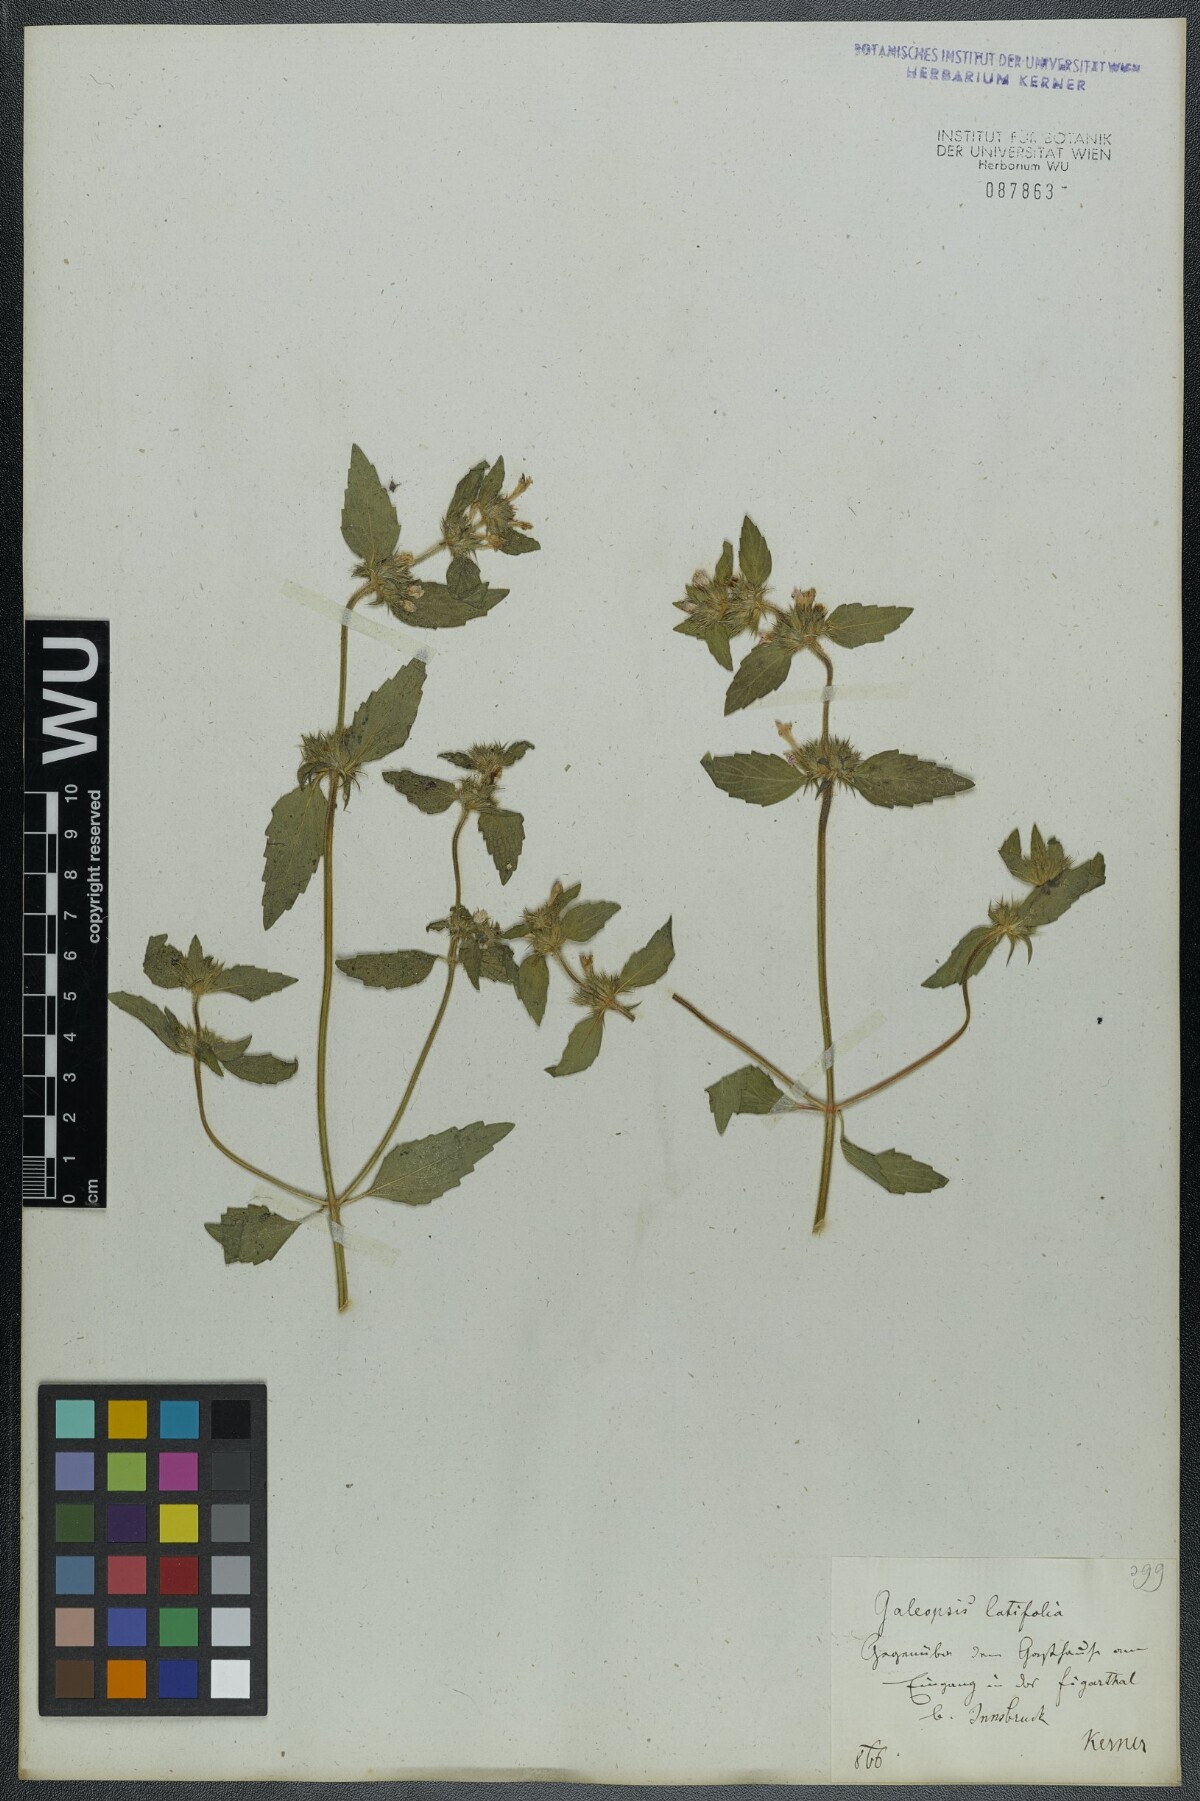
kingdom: Plantae
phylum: Tracheophyta
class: Magnoliopsida
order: Lamiales
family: Lamiaceae
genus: Galeopsis
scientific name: Galeopsis ladanum
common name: Broad-leaved hemp-nettle
